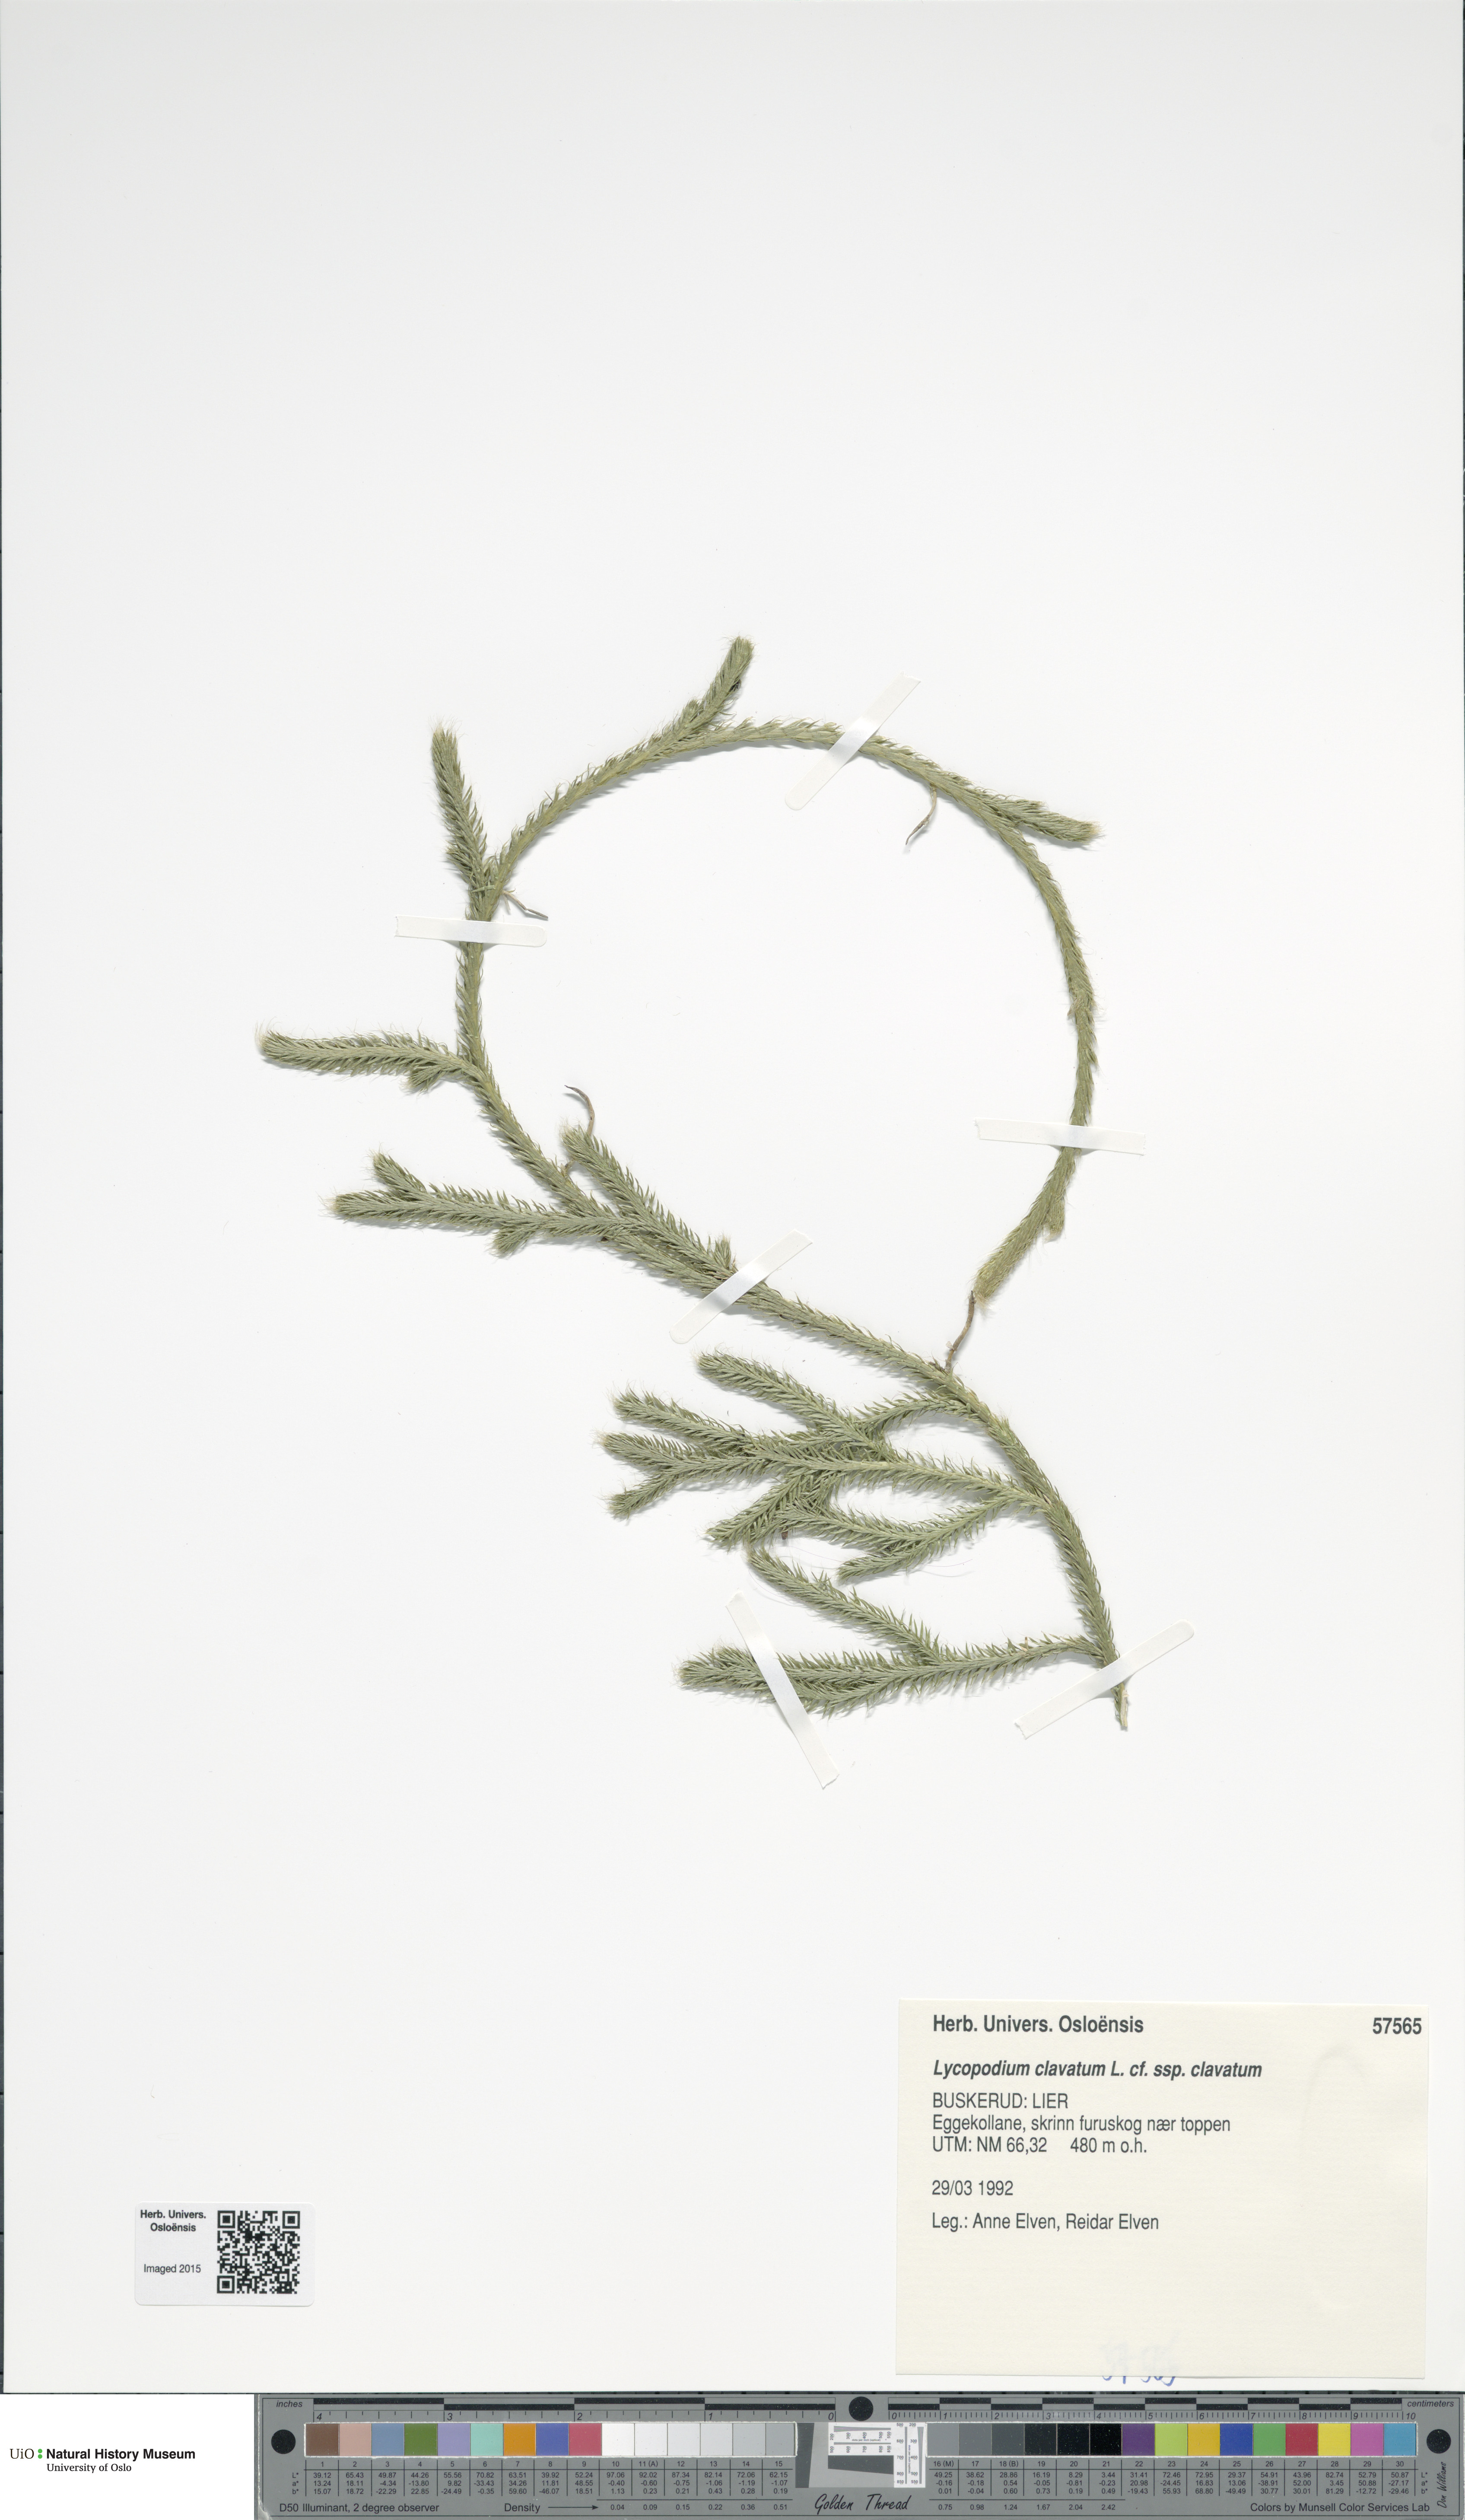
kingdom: Plantae
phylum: Tracheophyta
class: Lycopodiopsida
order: Lycopodiales
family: Lycopodiaceae
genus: Lycopodium
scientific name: Lycopodium clavatum
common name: Stag's-horn clubmoss
